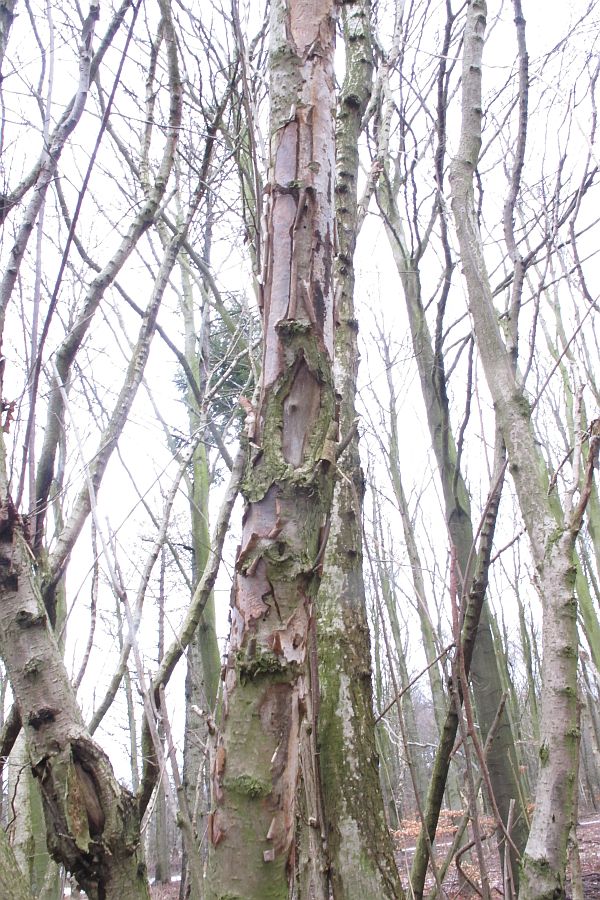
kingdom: Fungi
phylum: Basidiomycota
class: Agaricomycetes
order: Corticiales
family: Vuilleminiaceae
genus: Vuilleminia
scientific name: Vuilleminia coryli
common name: hassel-barksprænger
